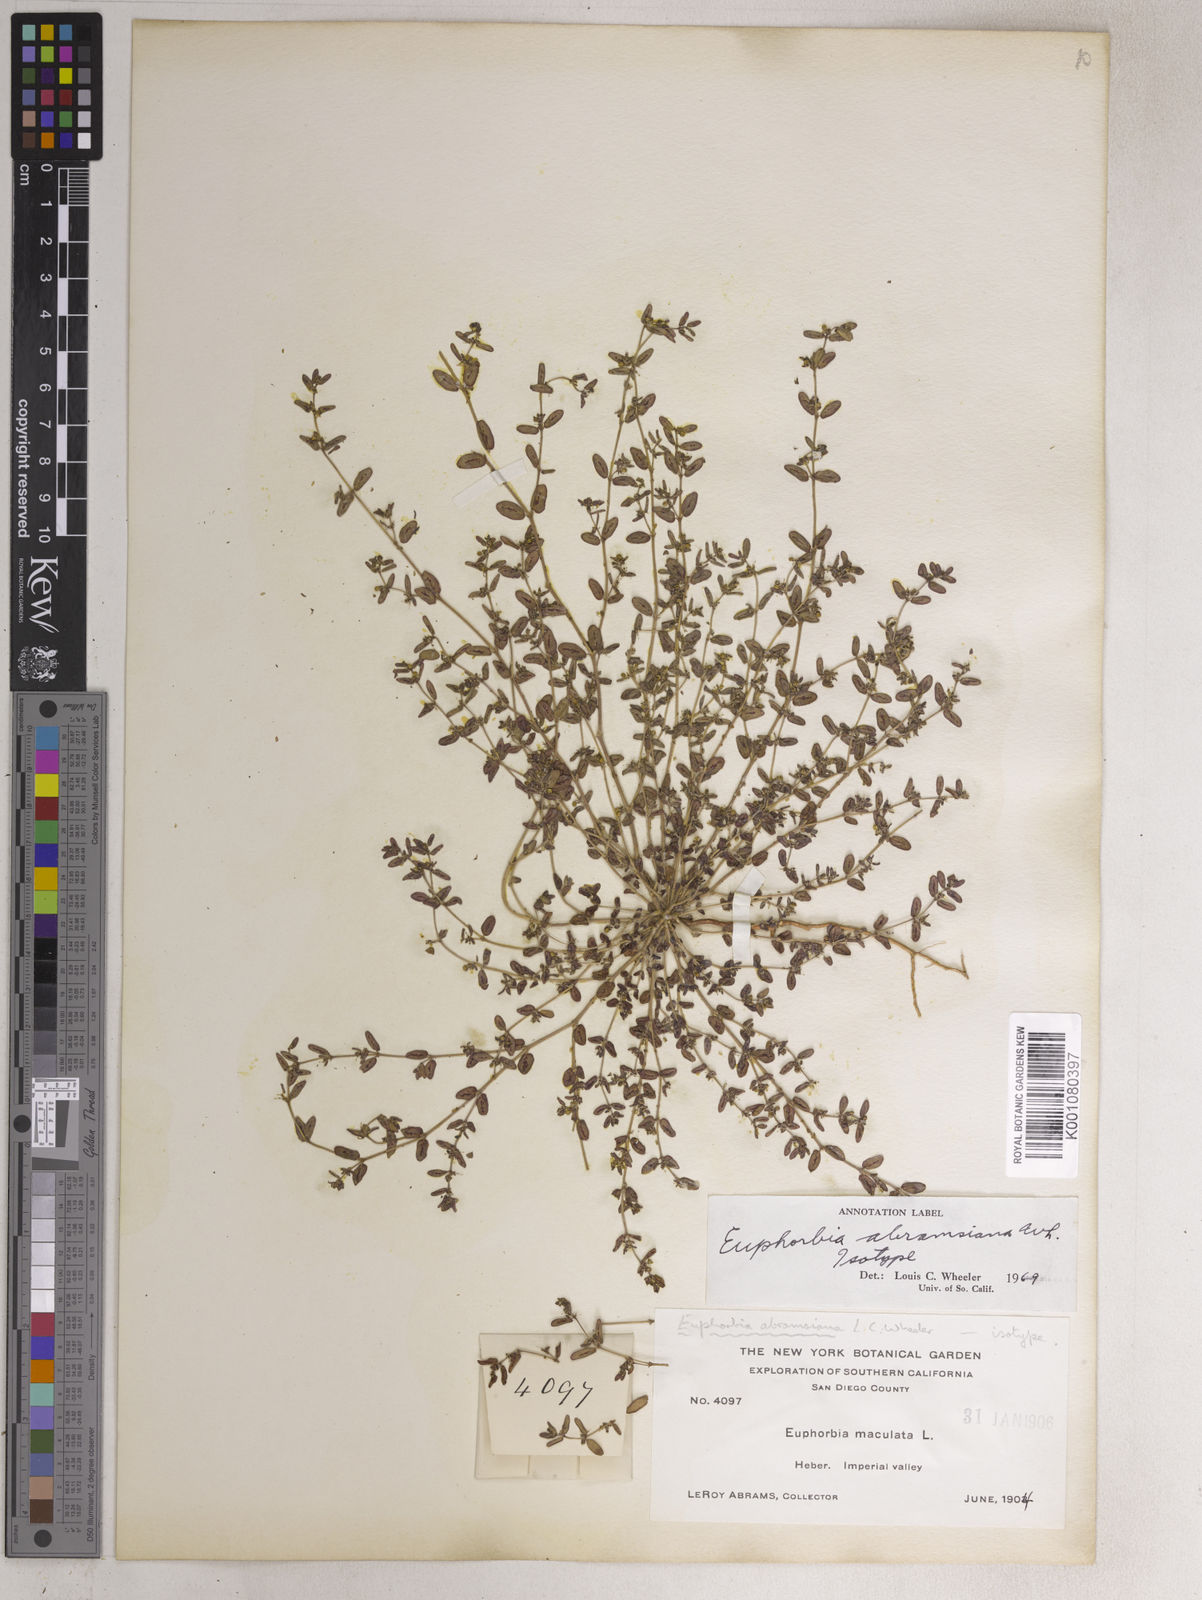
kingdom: Plantae
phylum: Tracheophyta
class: Magnoliopsida
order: Malpighiales
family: Euphorbiaceae
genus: Euphorbia
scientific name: Euphorbia
